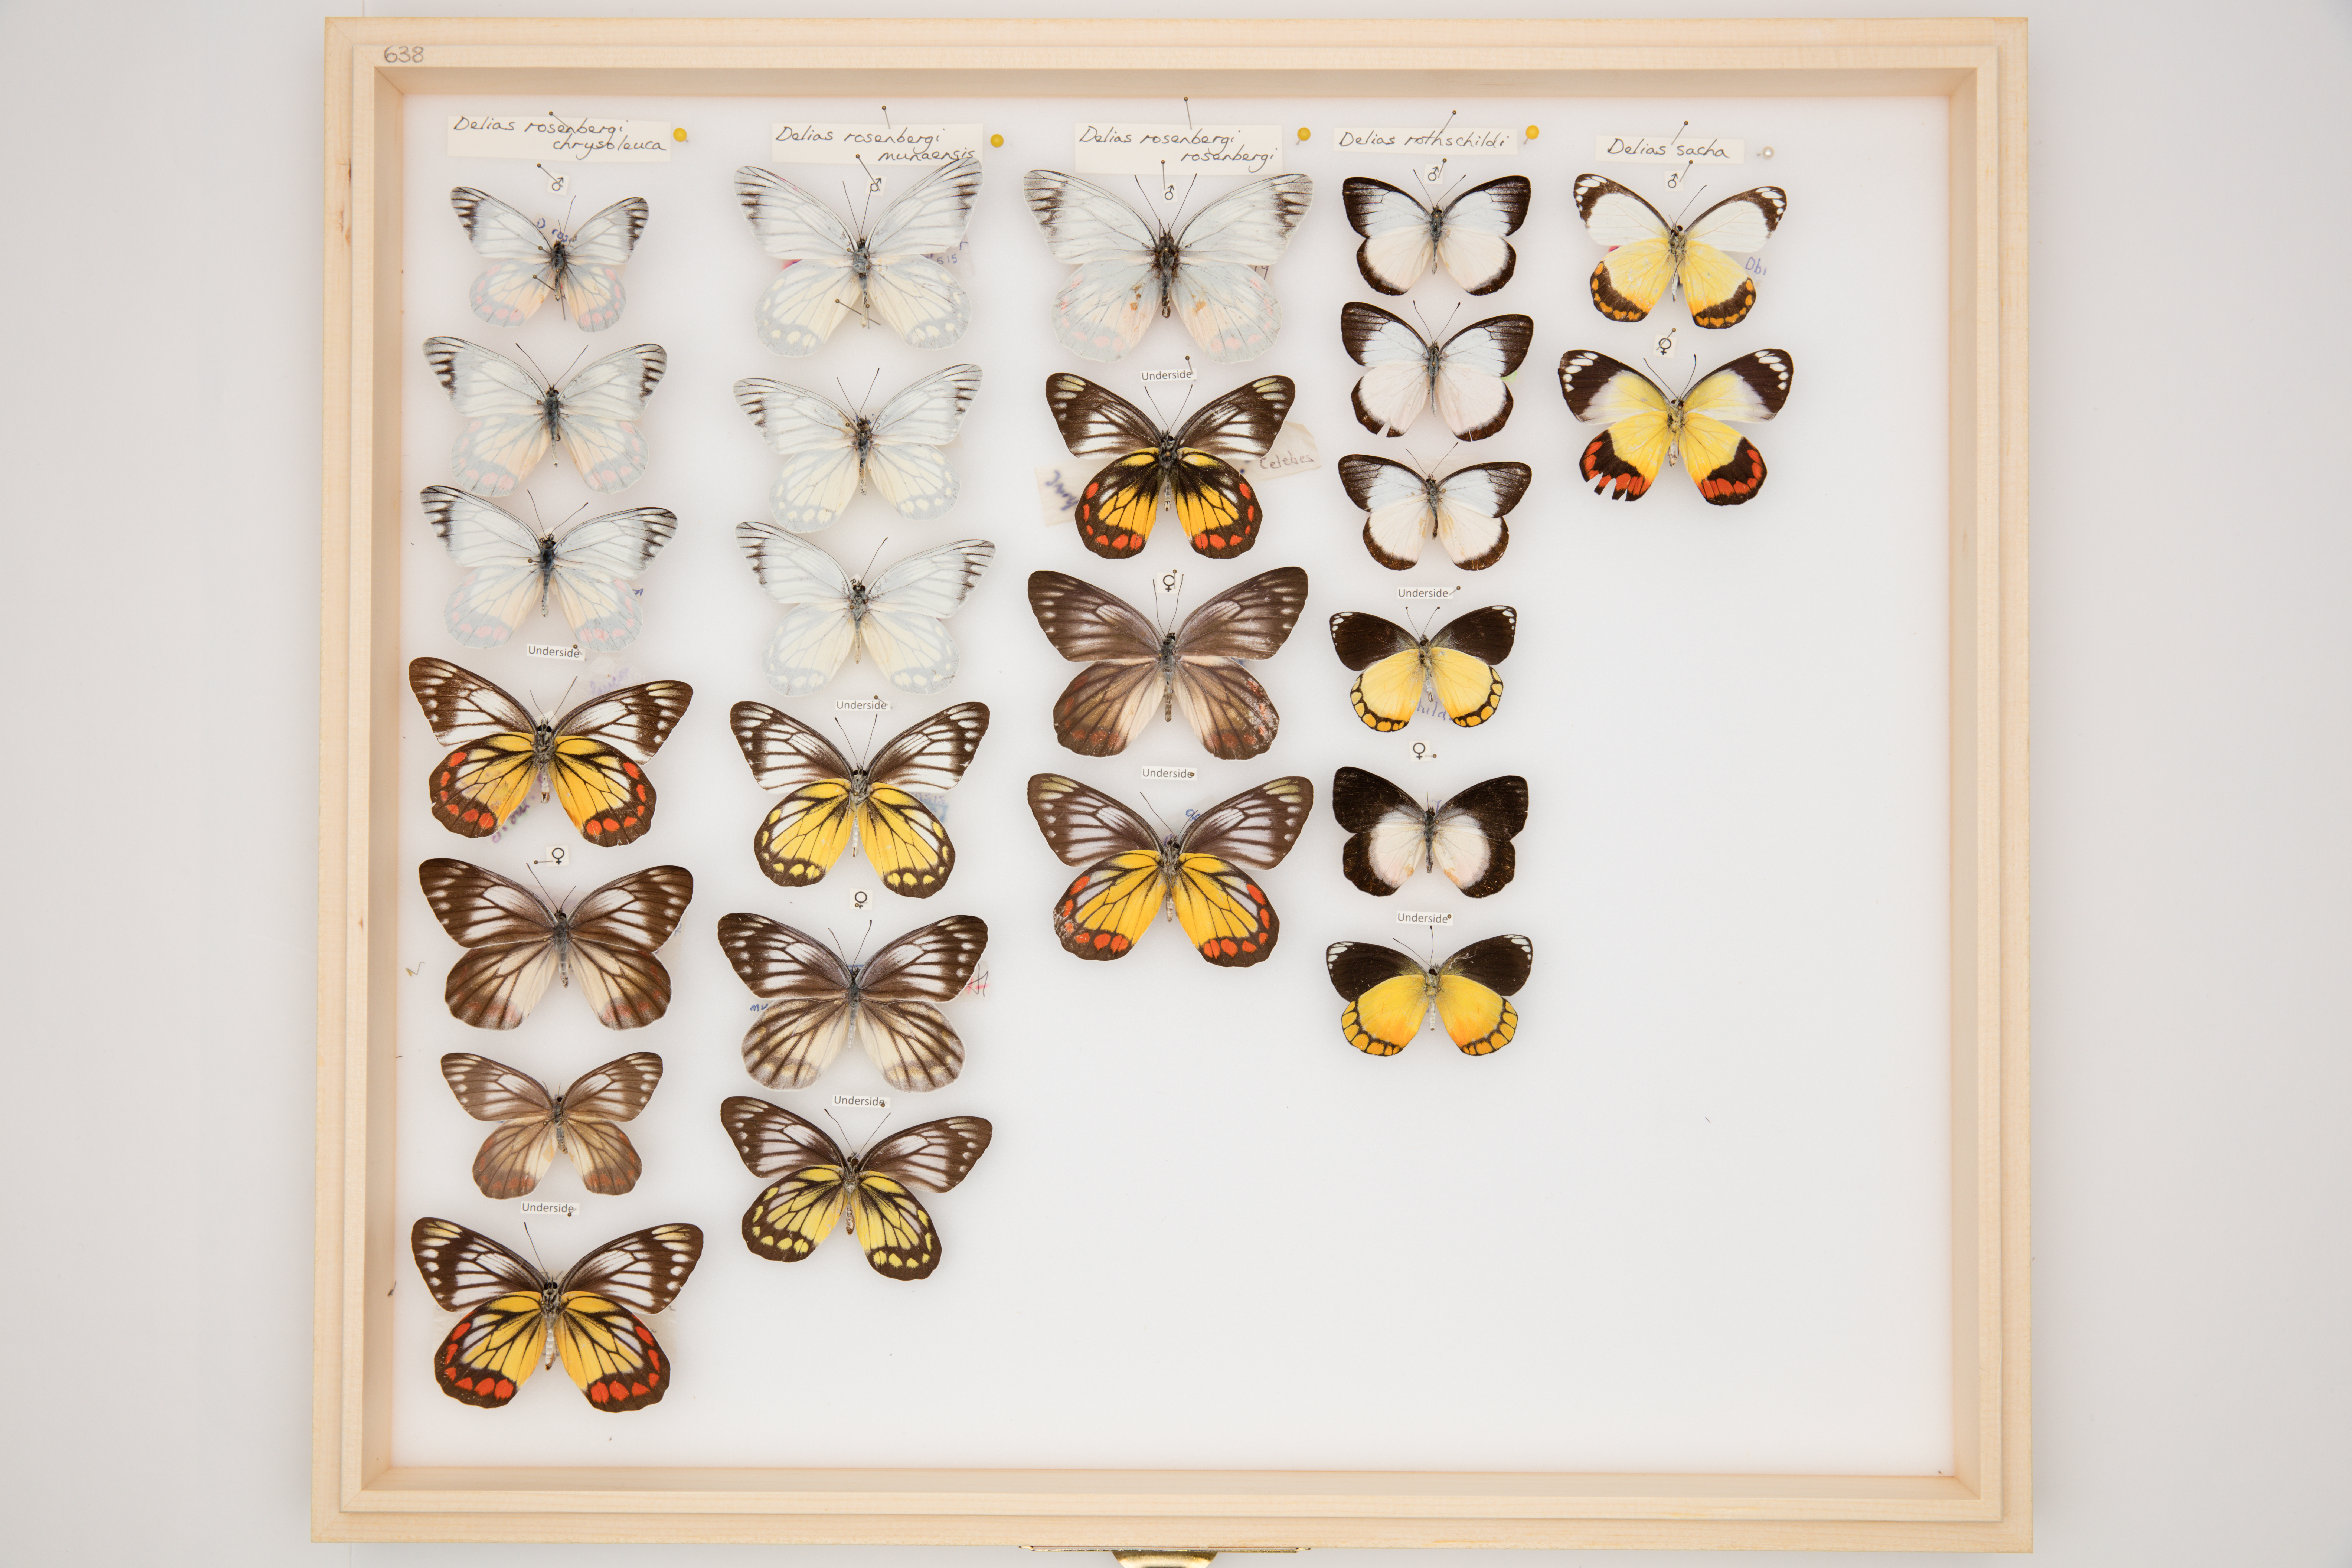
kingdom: Animalia
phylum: Arthropoda
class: Insecta
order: Lepidoptera
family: Pieridae
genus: Delias
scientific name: Delias sacha
